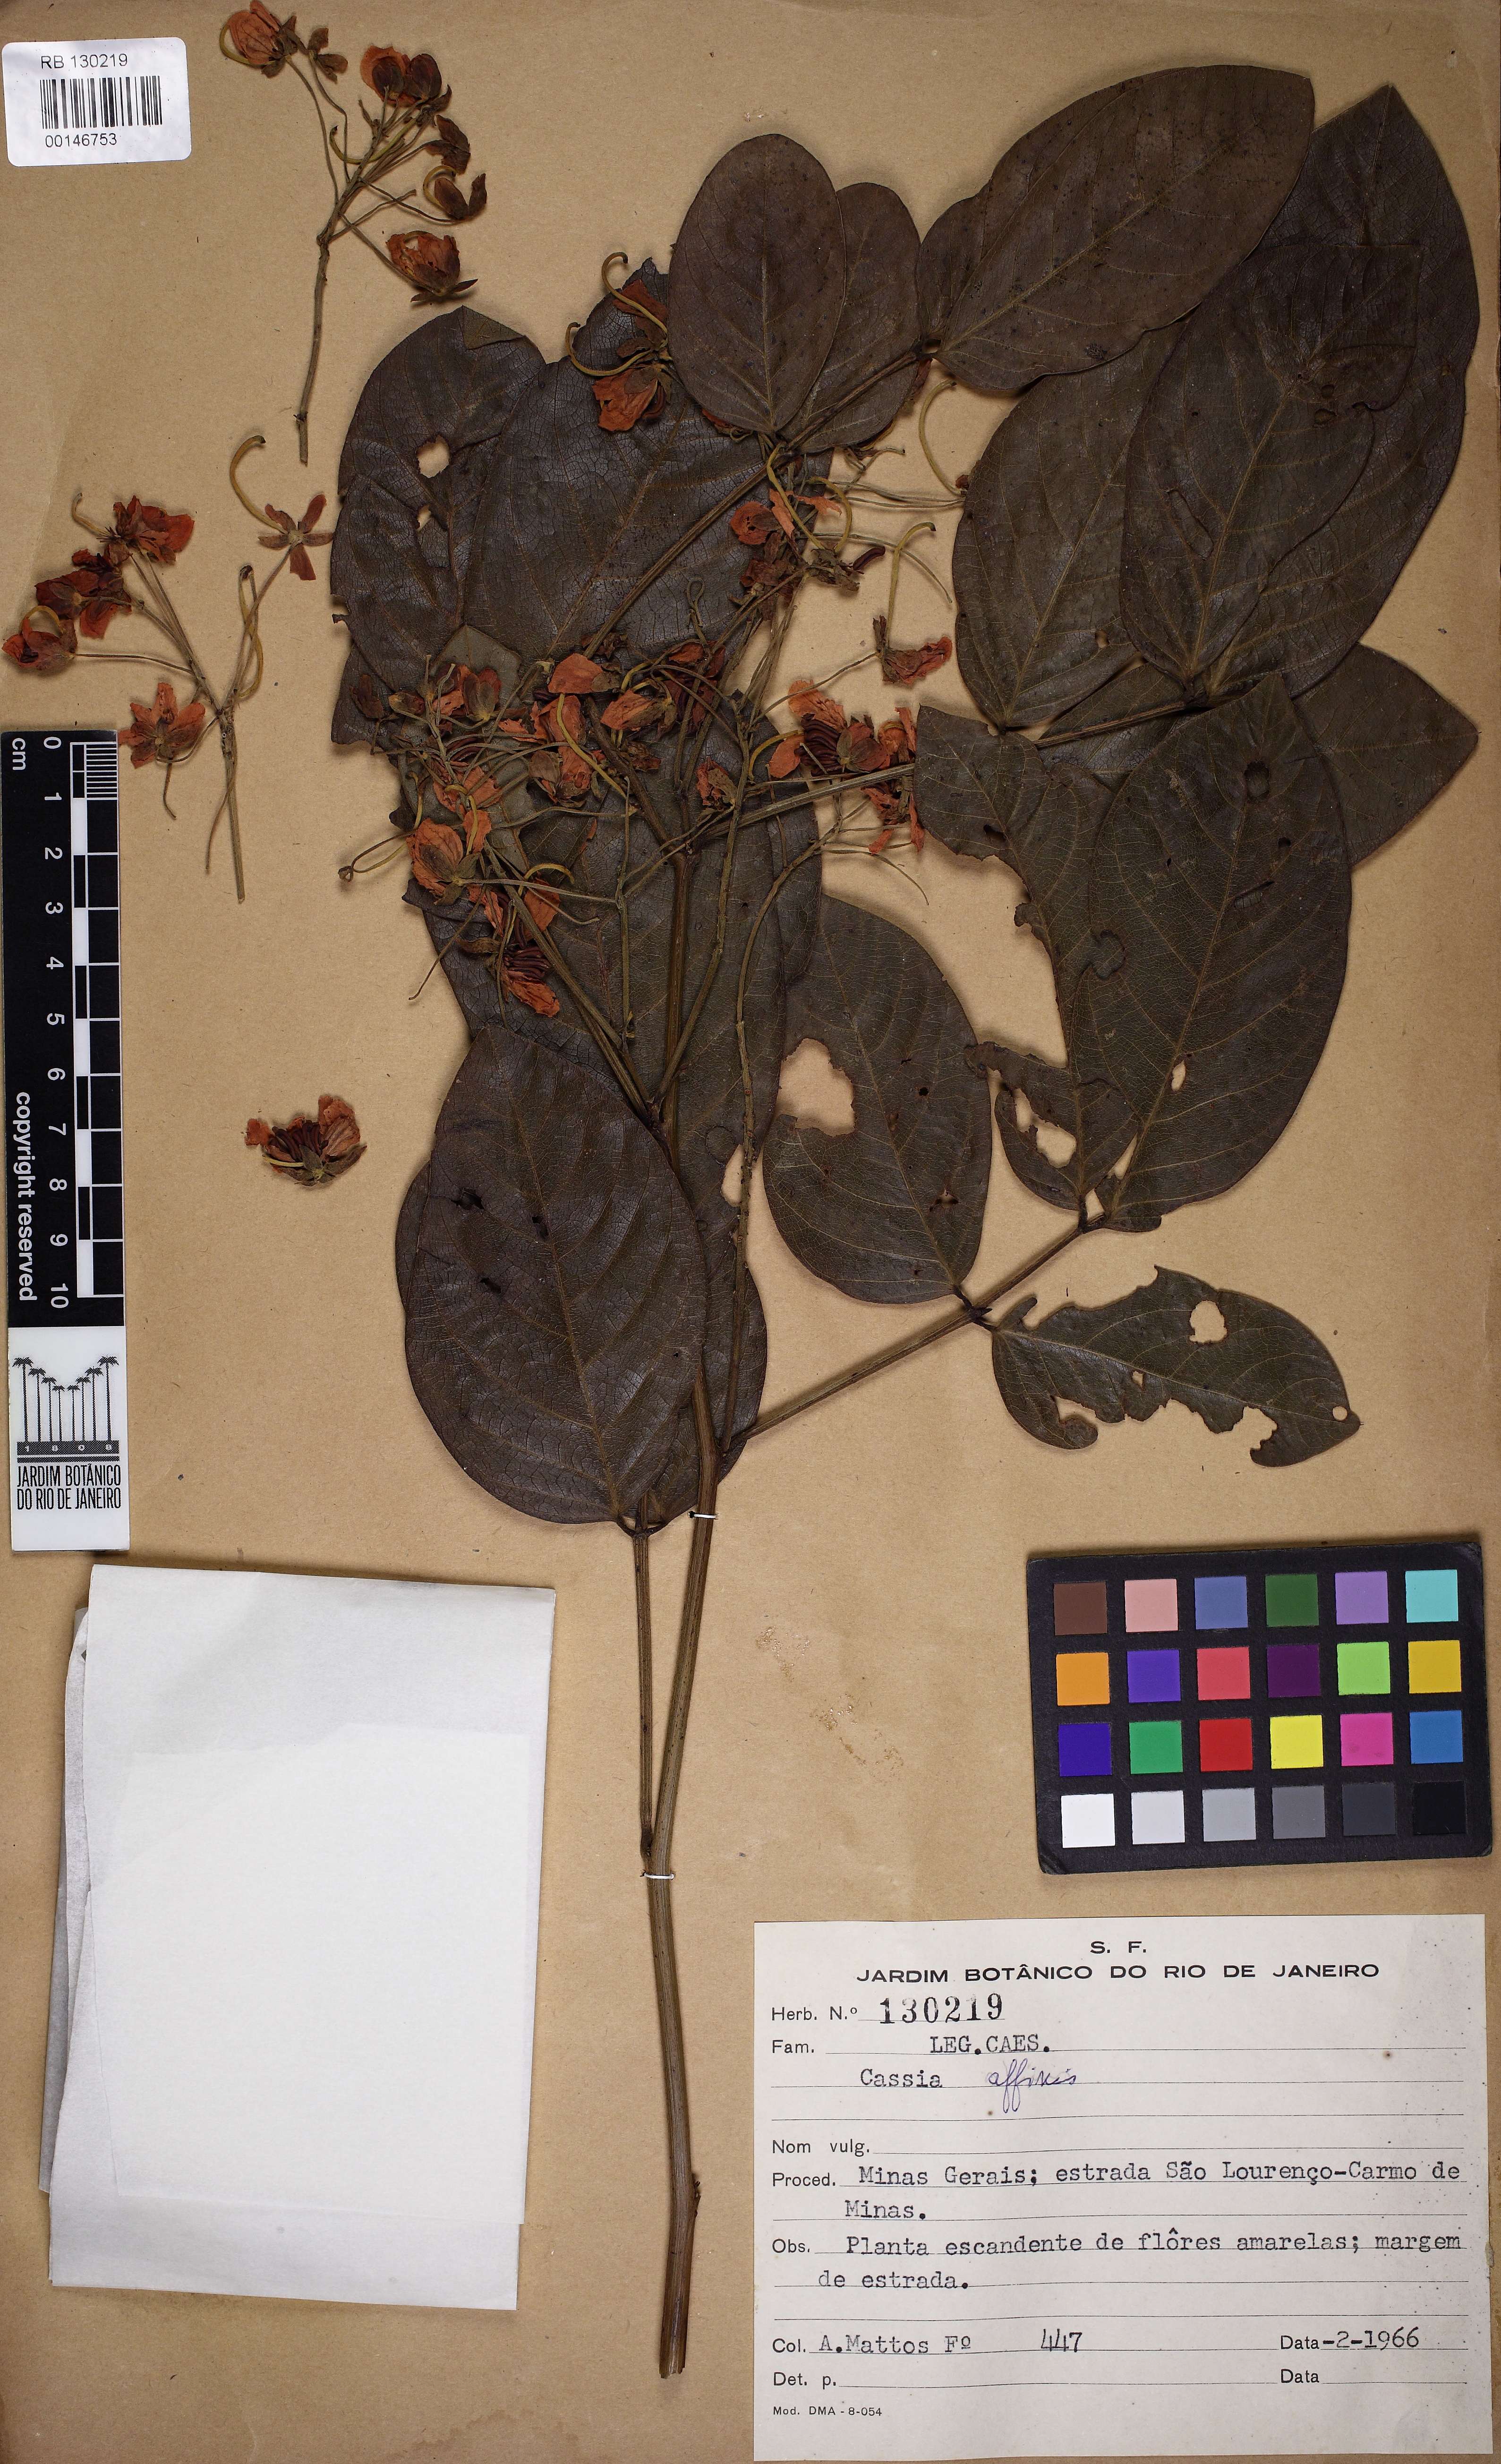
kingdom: Plantae
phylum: Tracheophyta
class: Magnoliopsida
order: Fabales
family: Fabaceae
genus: Senna
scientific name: Senna affinis
